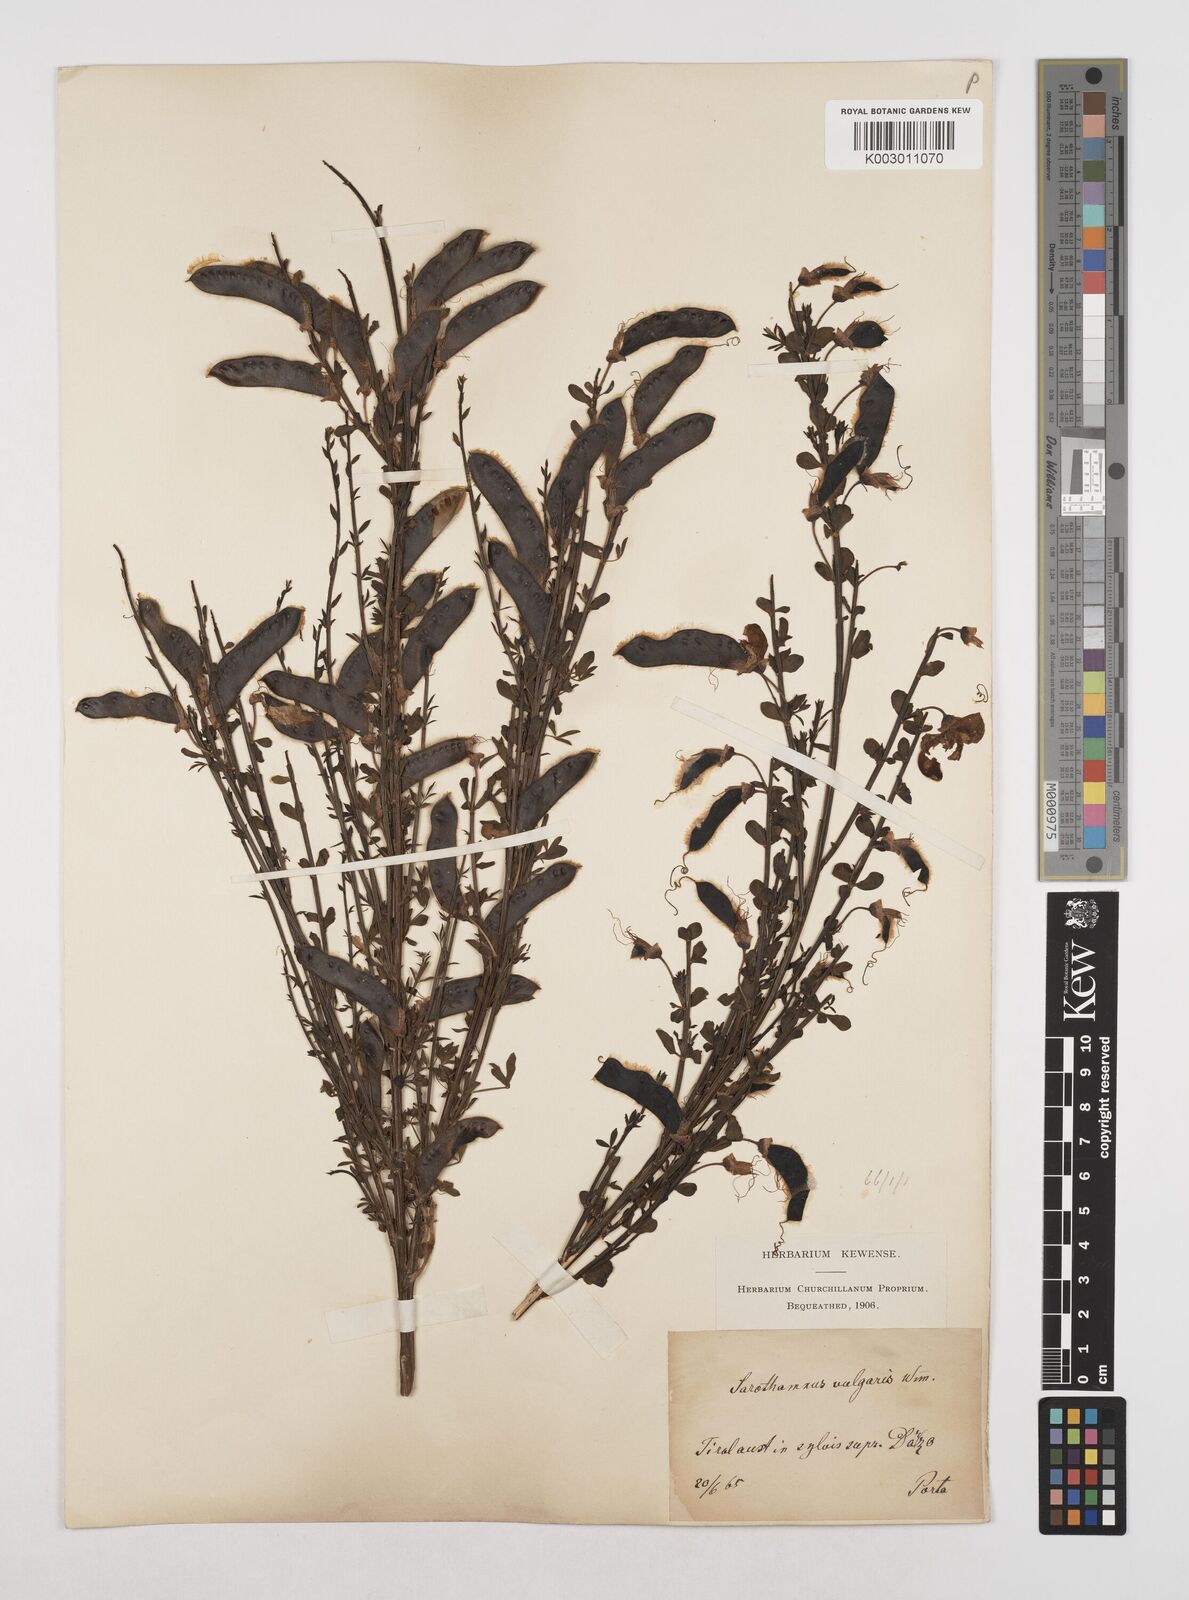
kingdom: Plantae
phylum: Tracheophyta
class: Magnoliopsida
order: Fabales
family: Fabaceae
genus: Cytisus
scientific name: Cytisus scoparius
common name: Scotch broom
